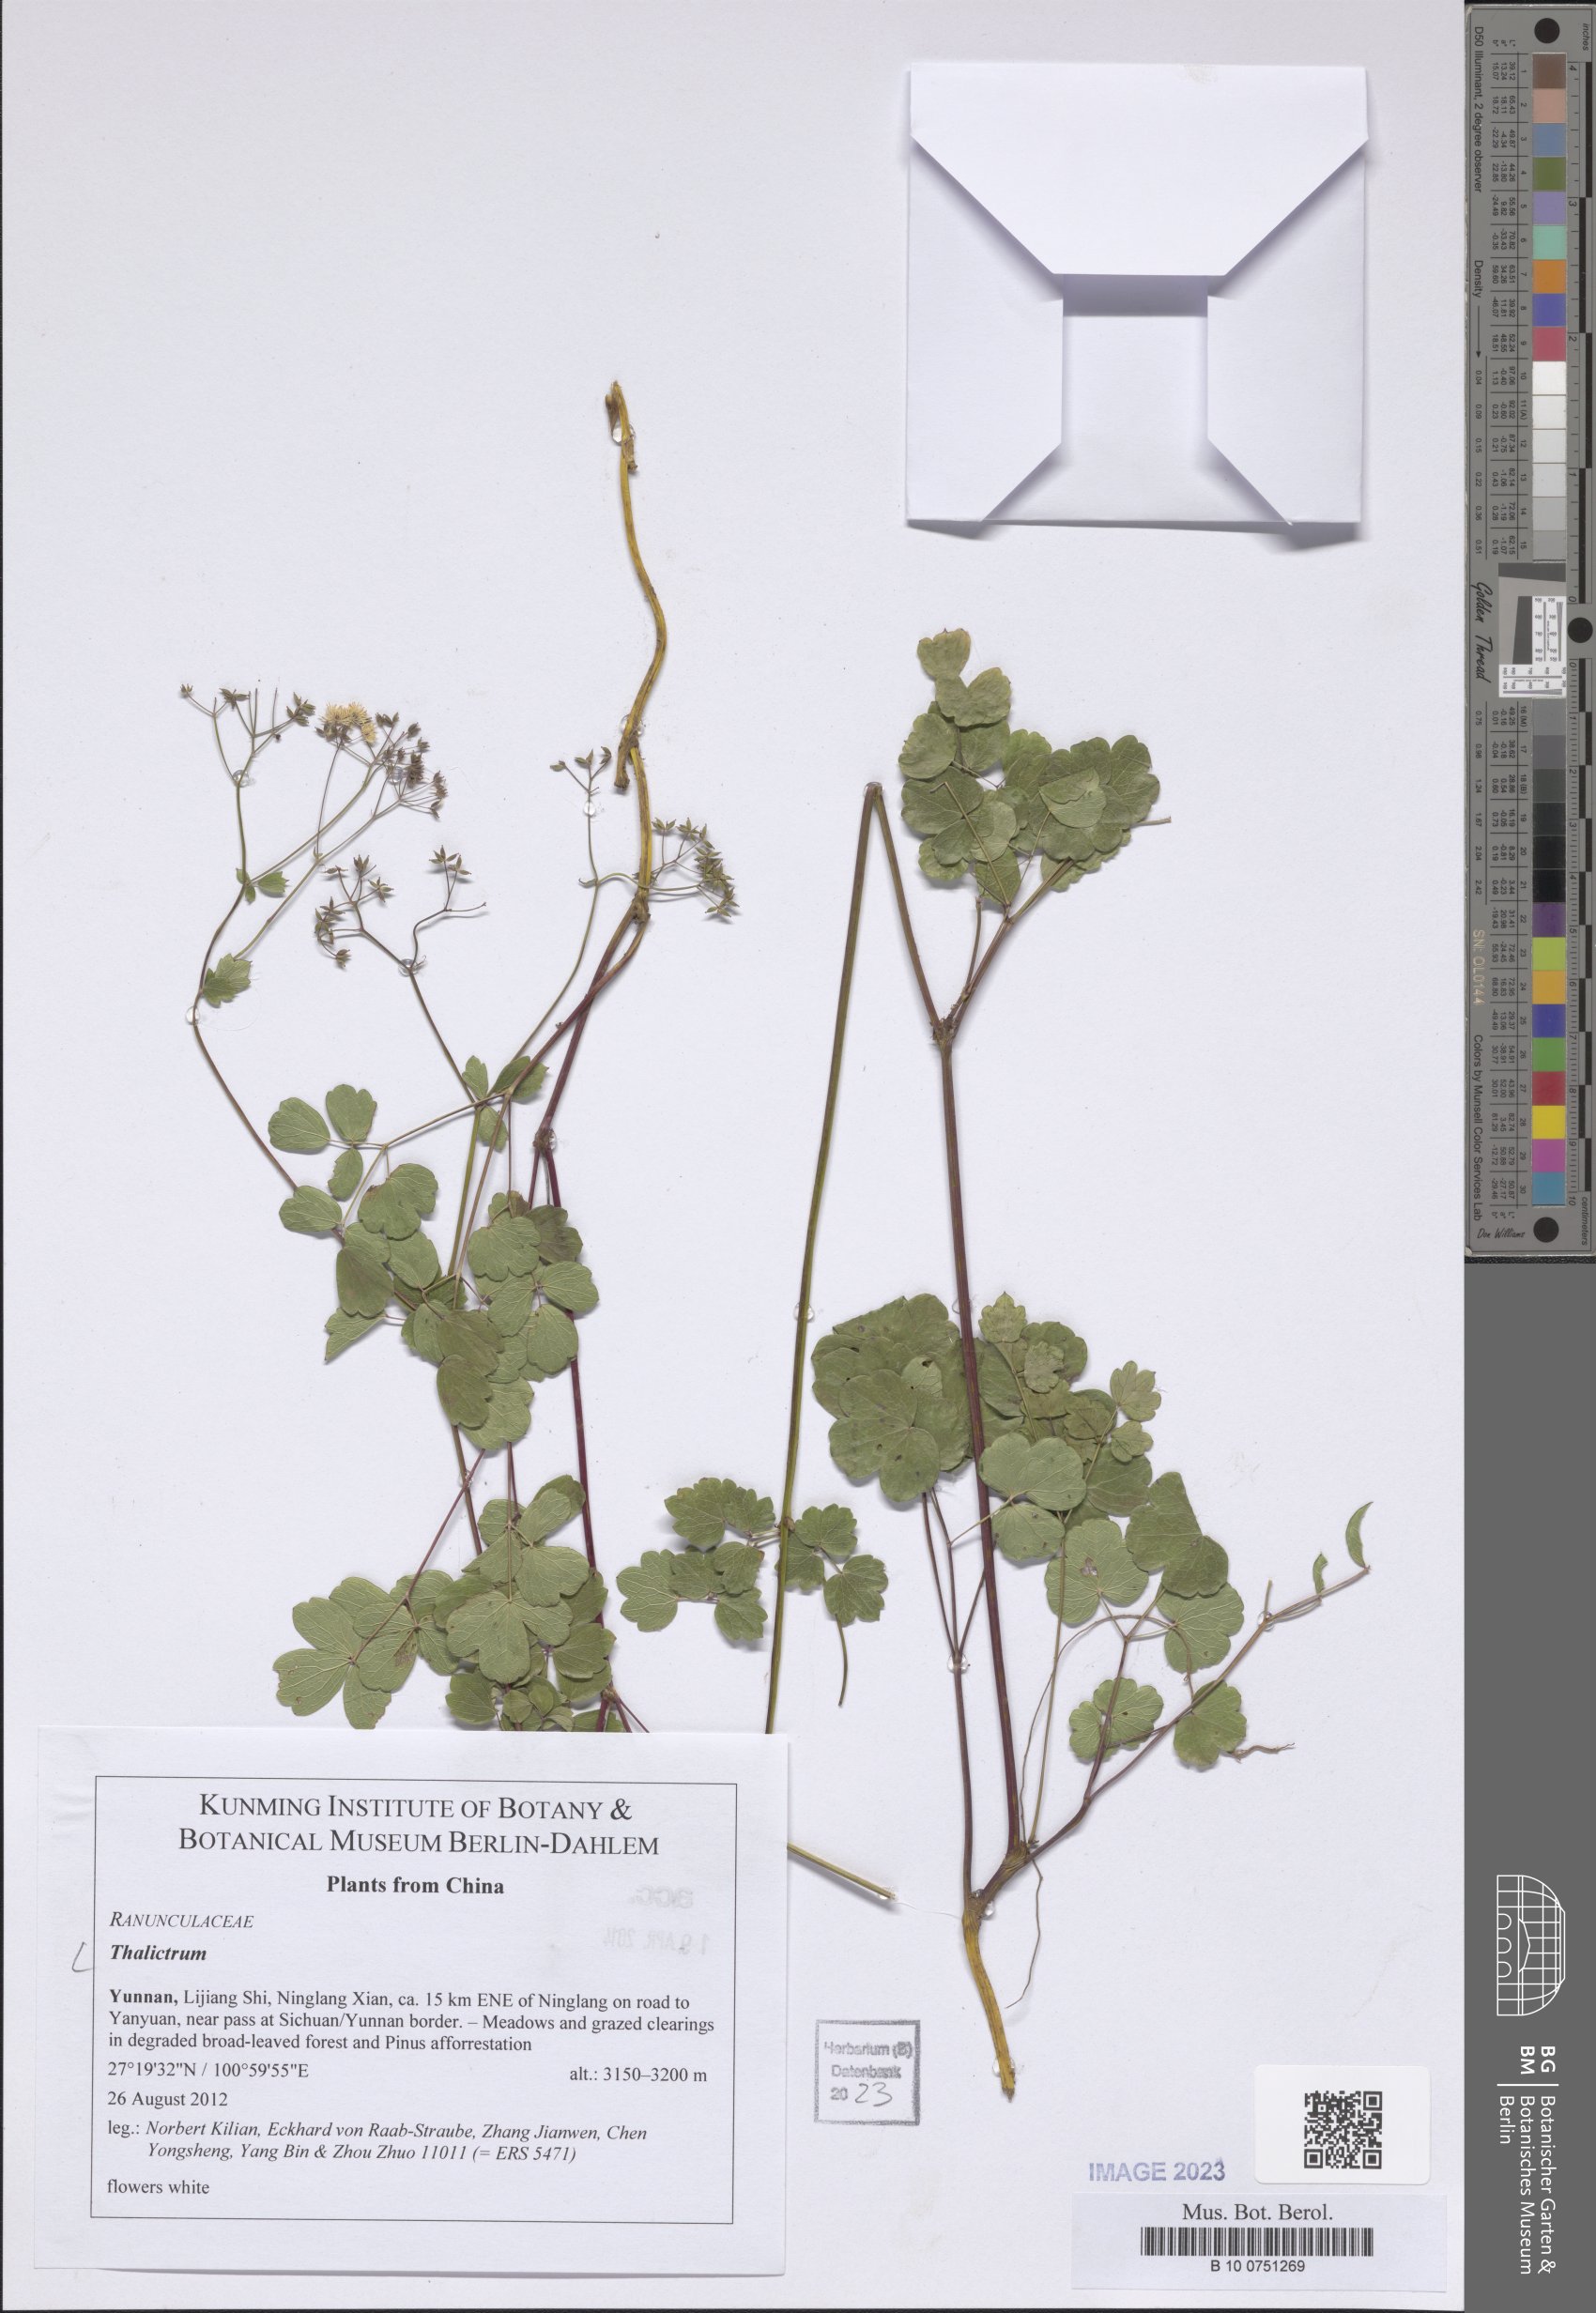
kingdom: Plantae
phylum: Tracheophyta
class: Magnoliopsida
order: Ranunculales
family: Ranunculaceae
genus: Thalictrum
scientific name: Thalictrum
